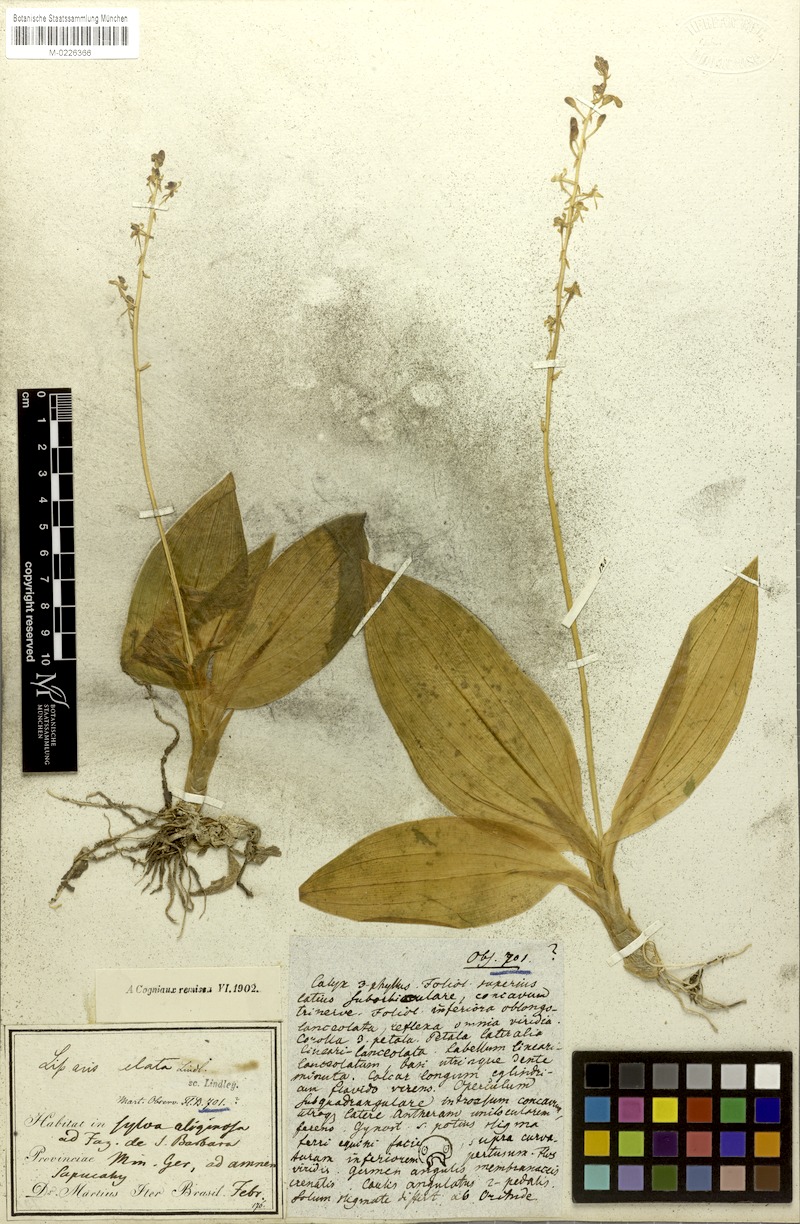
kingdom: Plantae
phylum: Tracheophyta
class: Liliopsida
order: Asparagales
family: Orchidaceae
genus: Liparis
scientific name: Liparis nervosa
